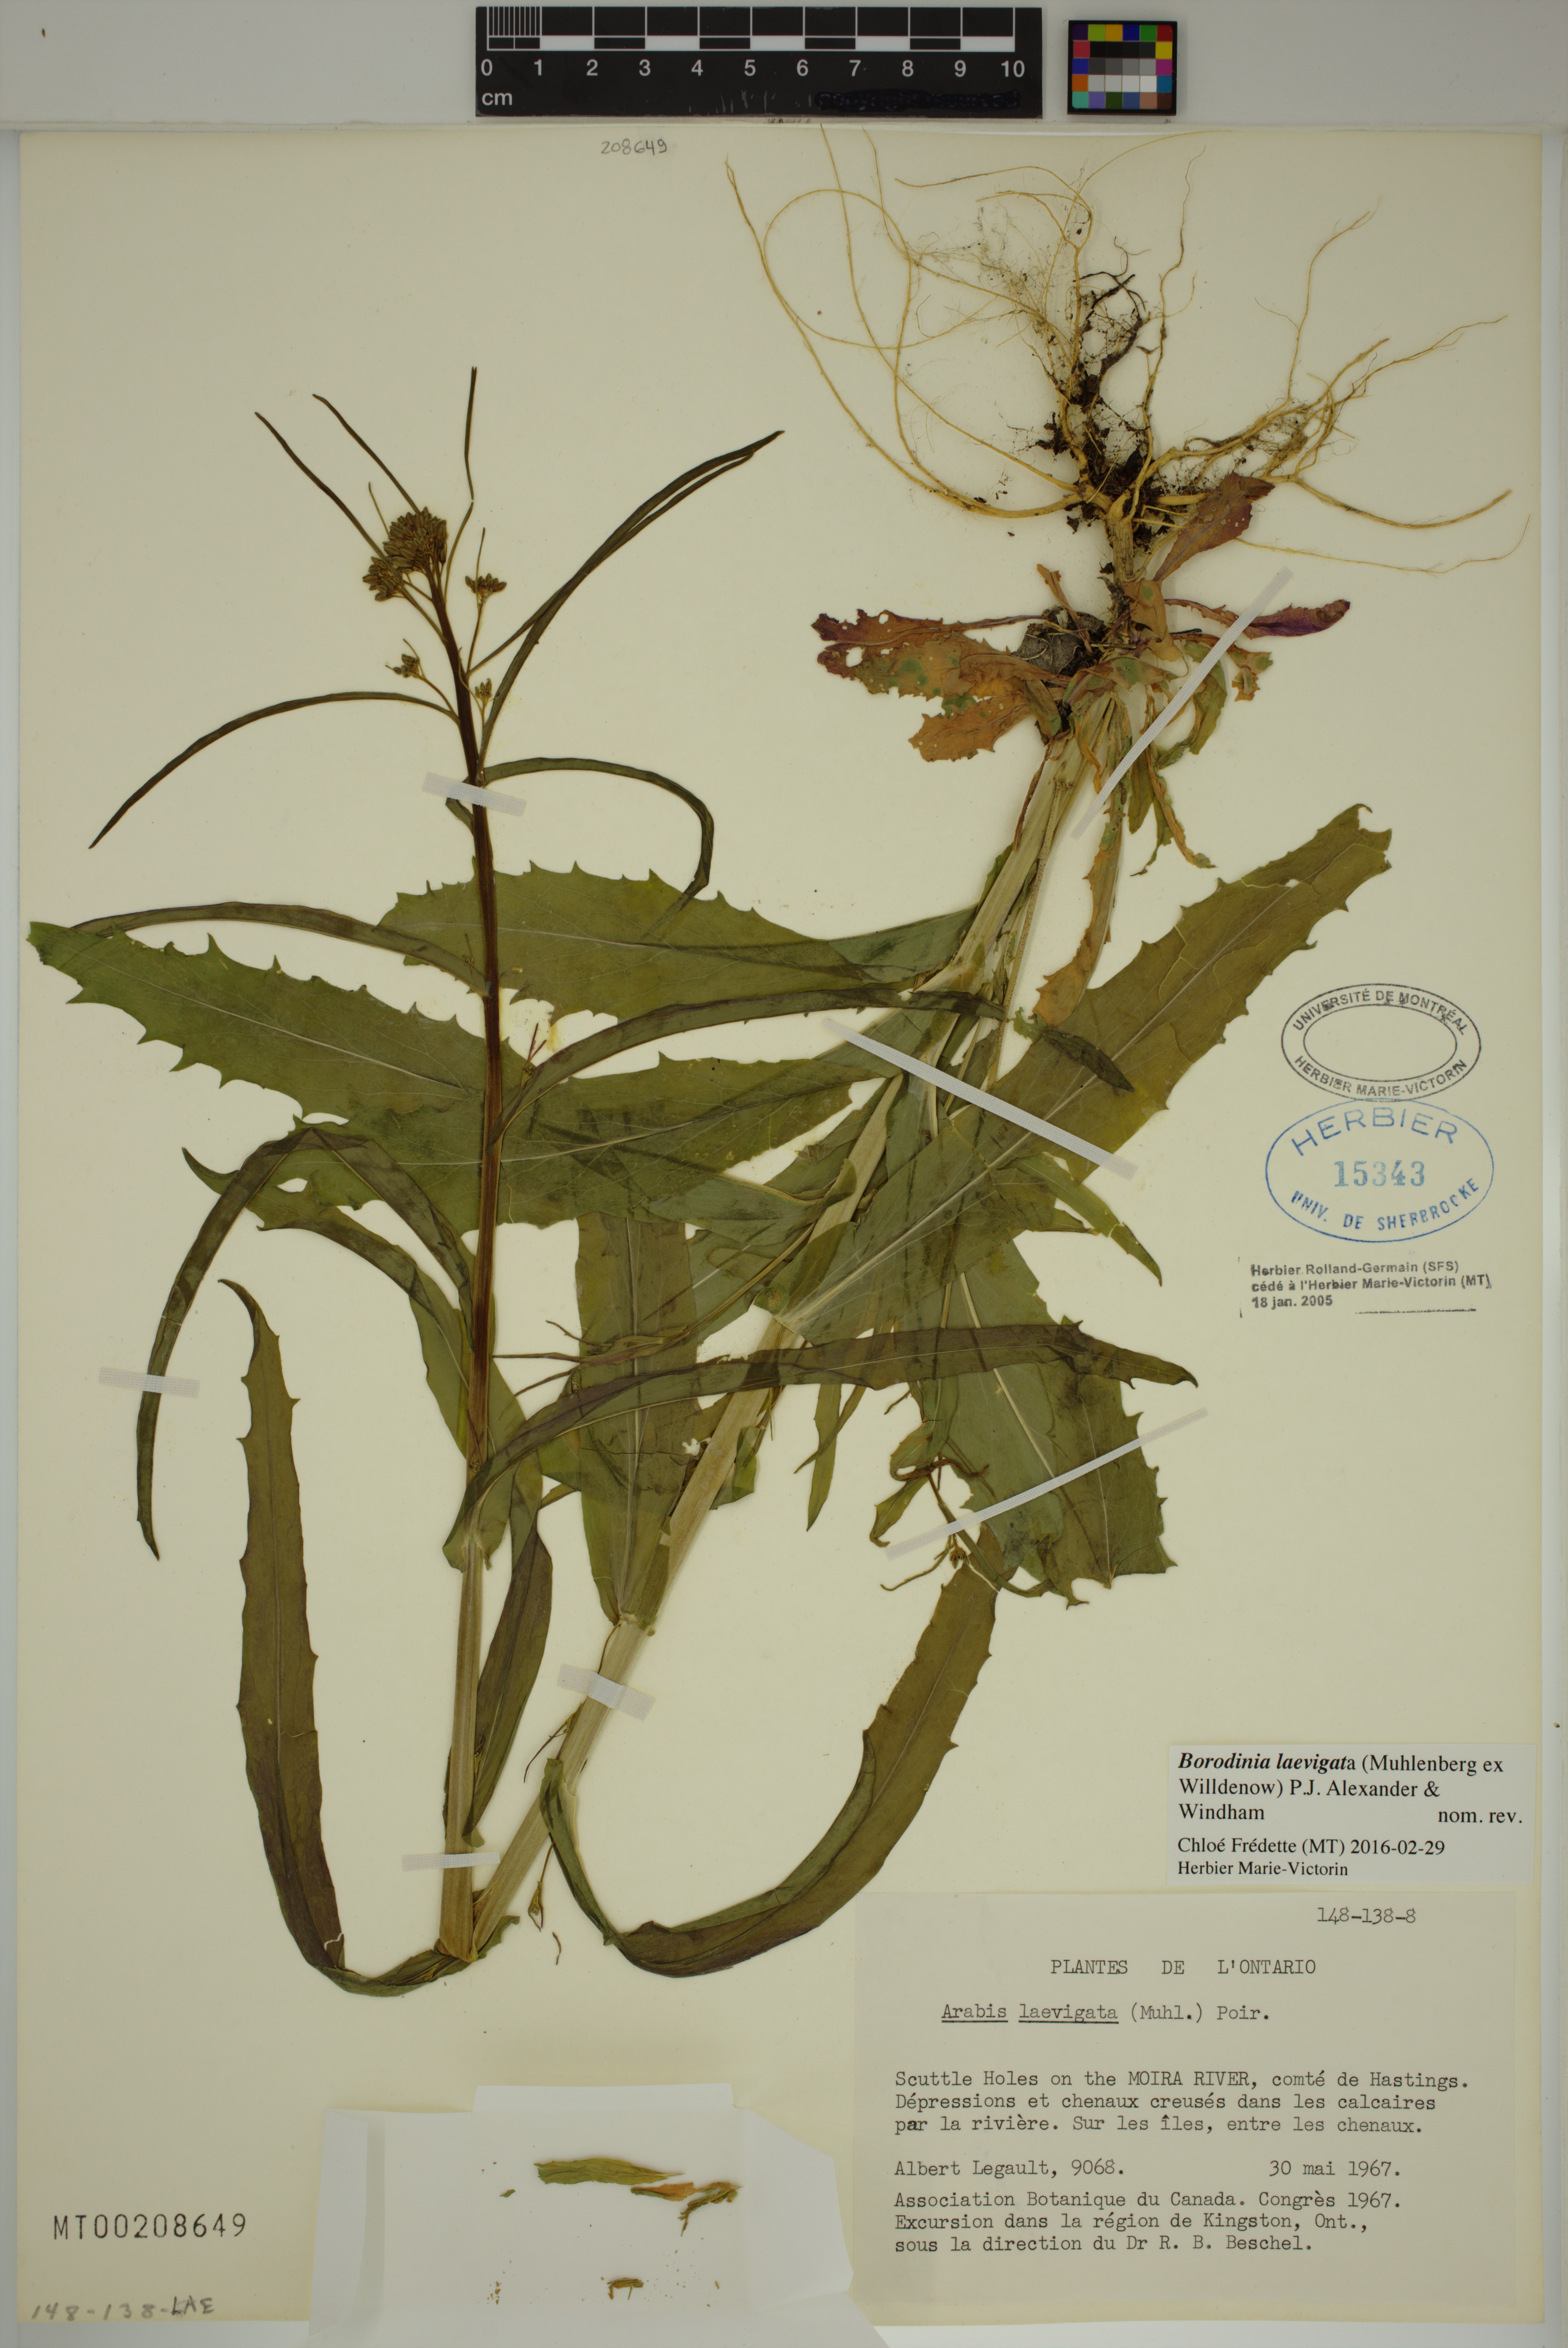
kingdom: Plantae
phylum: Tracheophyta
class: Magnoliopsida
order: Brassicales
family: Brassicaceae
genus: Borodinia
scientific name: Borodinia laevigata
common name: Smooth rockcress
